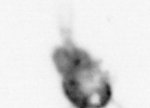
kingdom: Animalia
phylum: Arthropoda
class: Copepoda
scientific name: Copepoda
